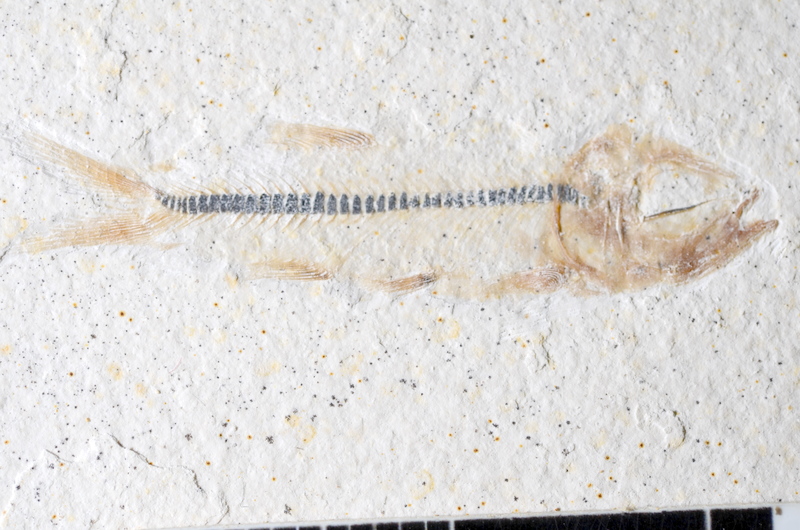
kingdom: Animalia
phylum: Chordata
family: Ascalaboidae
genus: Ebertichthys
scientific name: Ebertichthys ettlingensis
